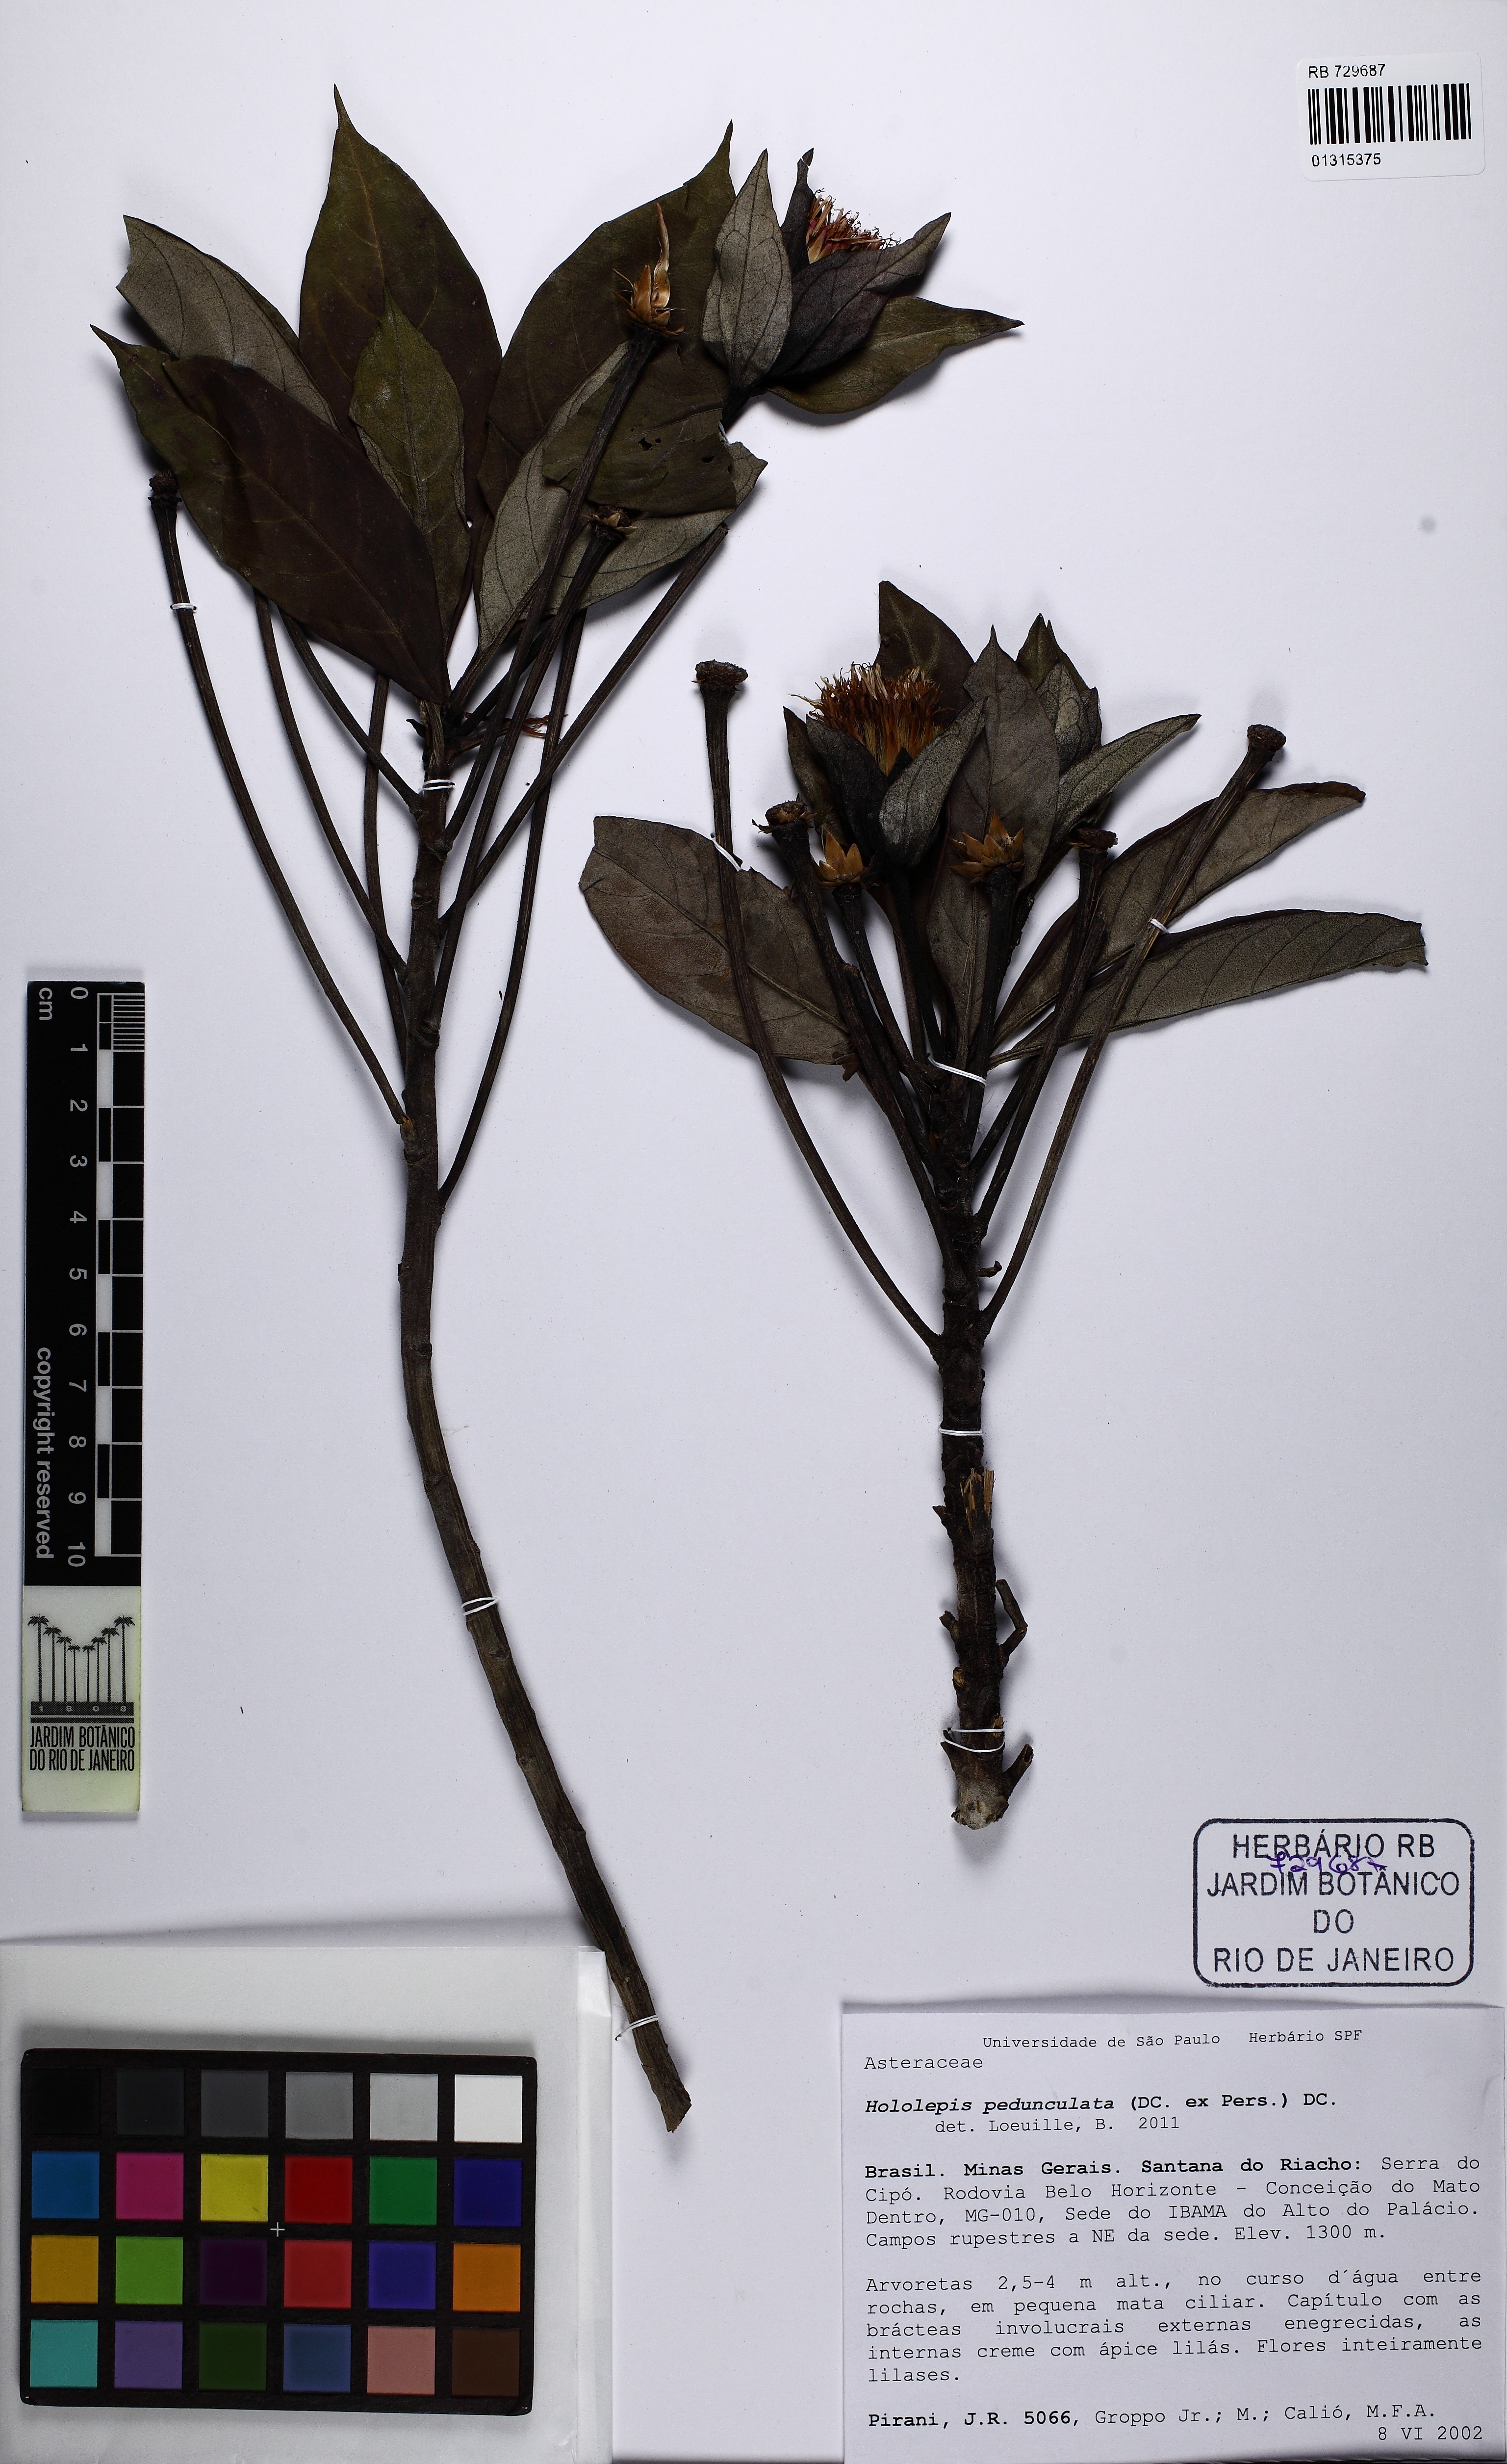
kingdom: Plantae
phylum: Tracheophyta
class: Magnoliopsida
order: Asterales
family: Asteraceae
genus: Hololepis
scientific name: Hololepis pedunculata
